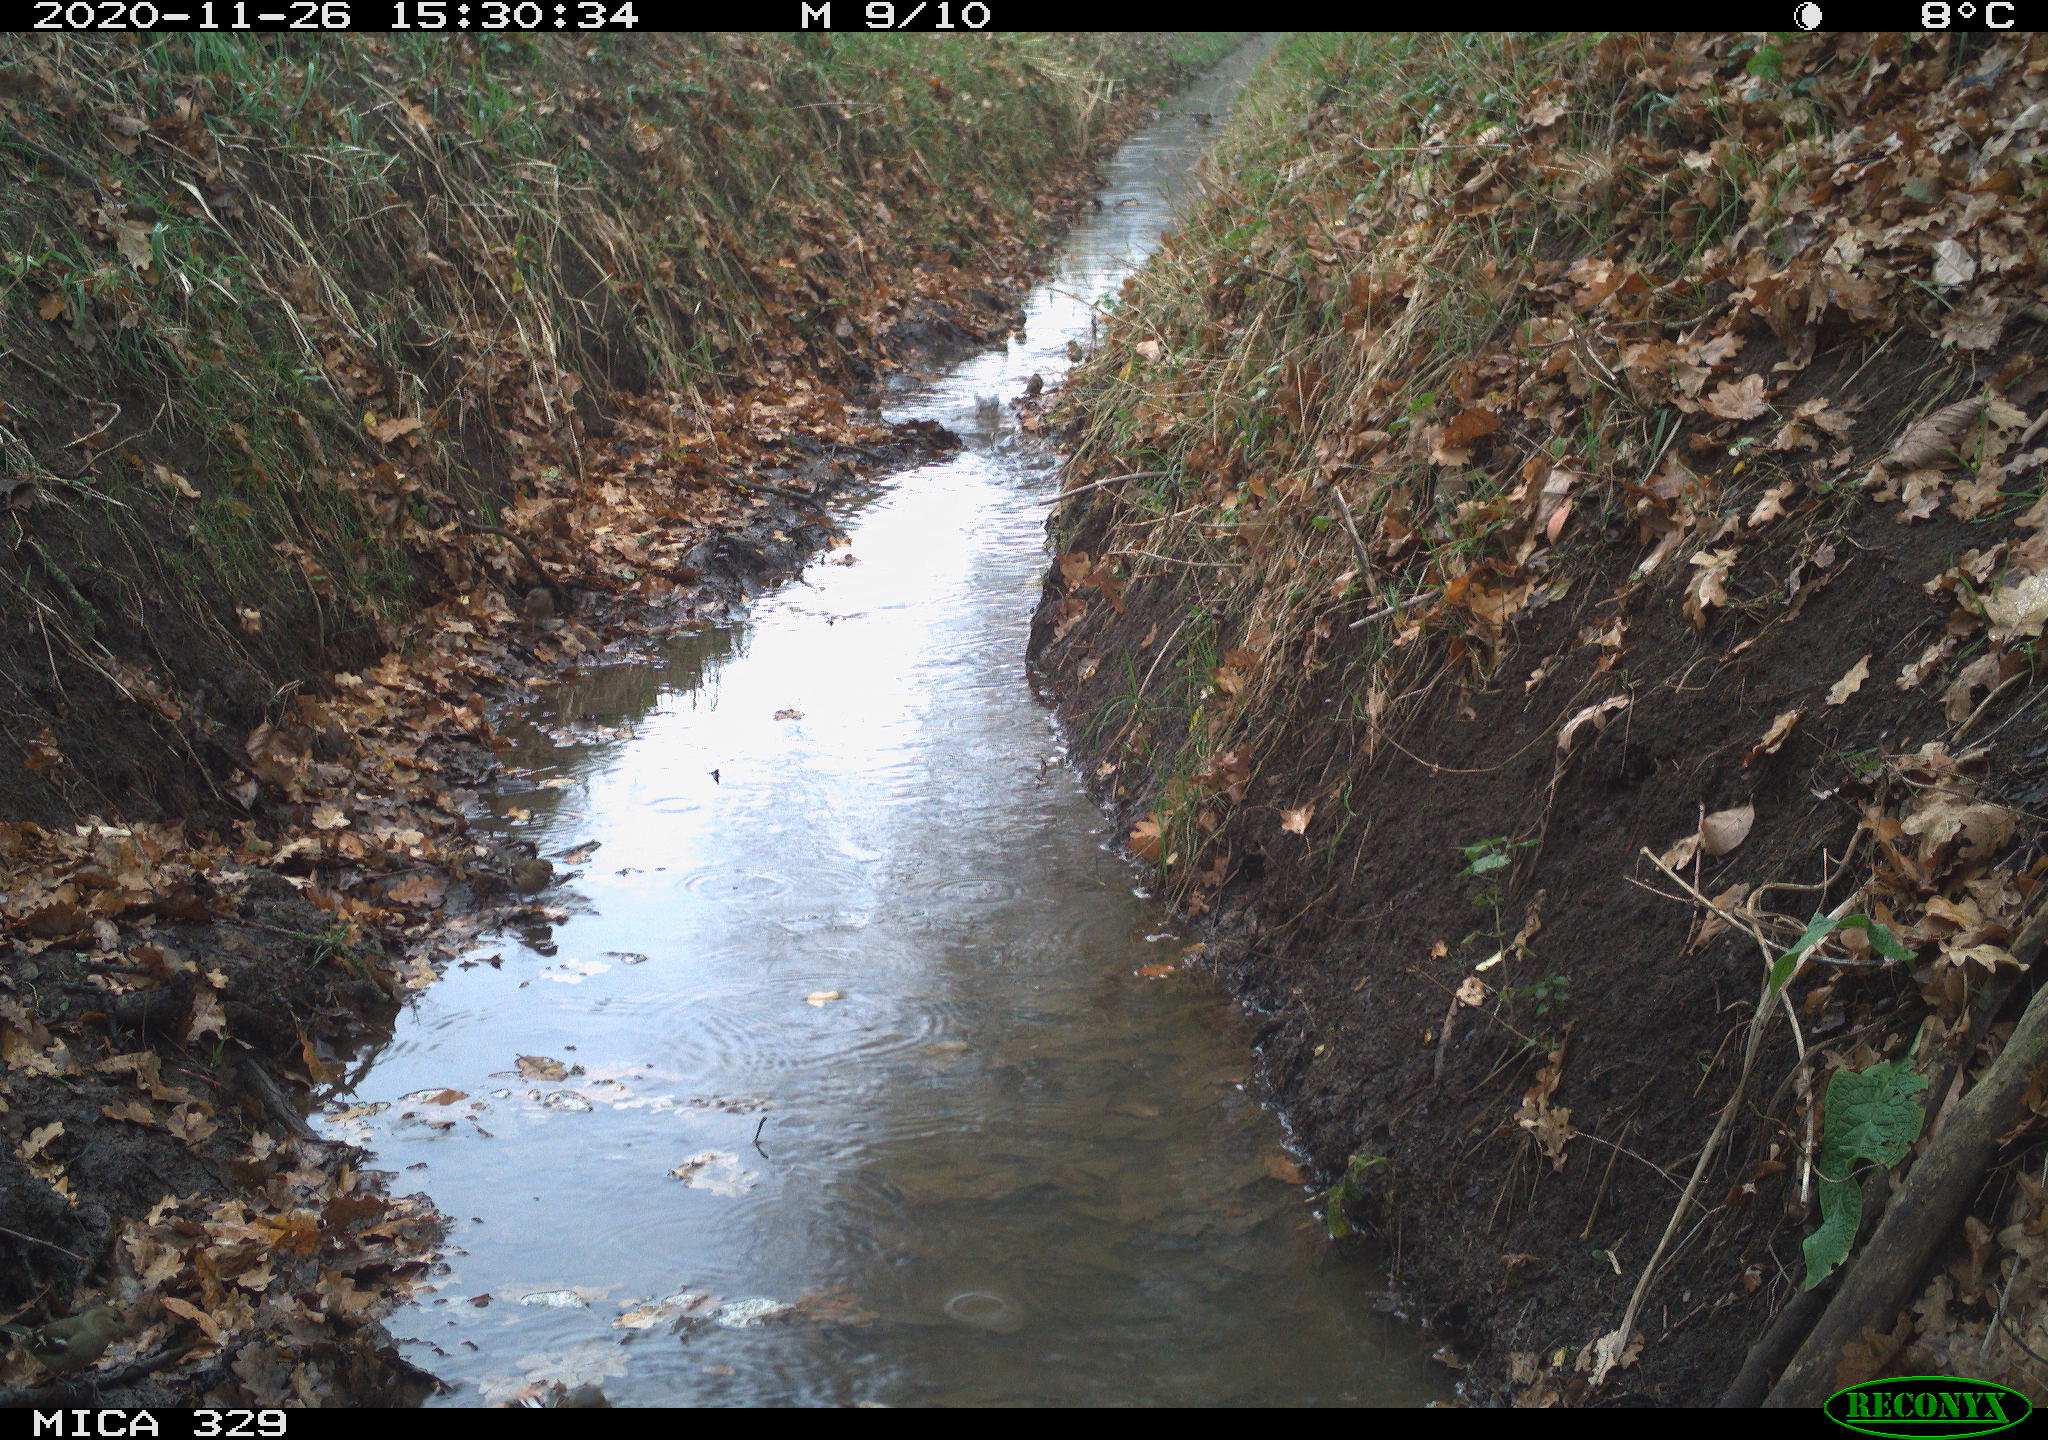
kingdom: Animalia
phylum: Chordata
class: Aves
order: Passeriformes
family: Fringillidae
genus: Fringilla
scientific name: Fringilla coelebs
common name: Common chaffinch
